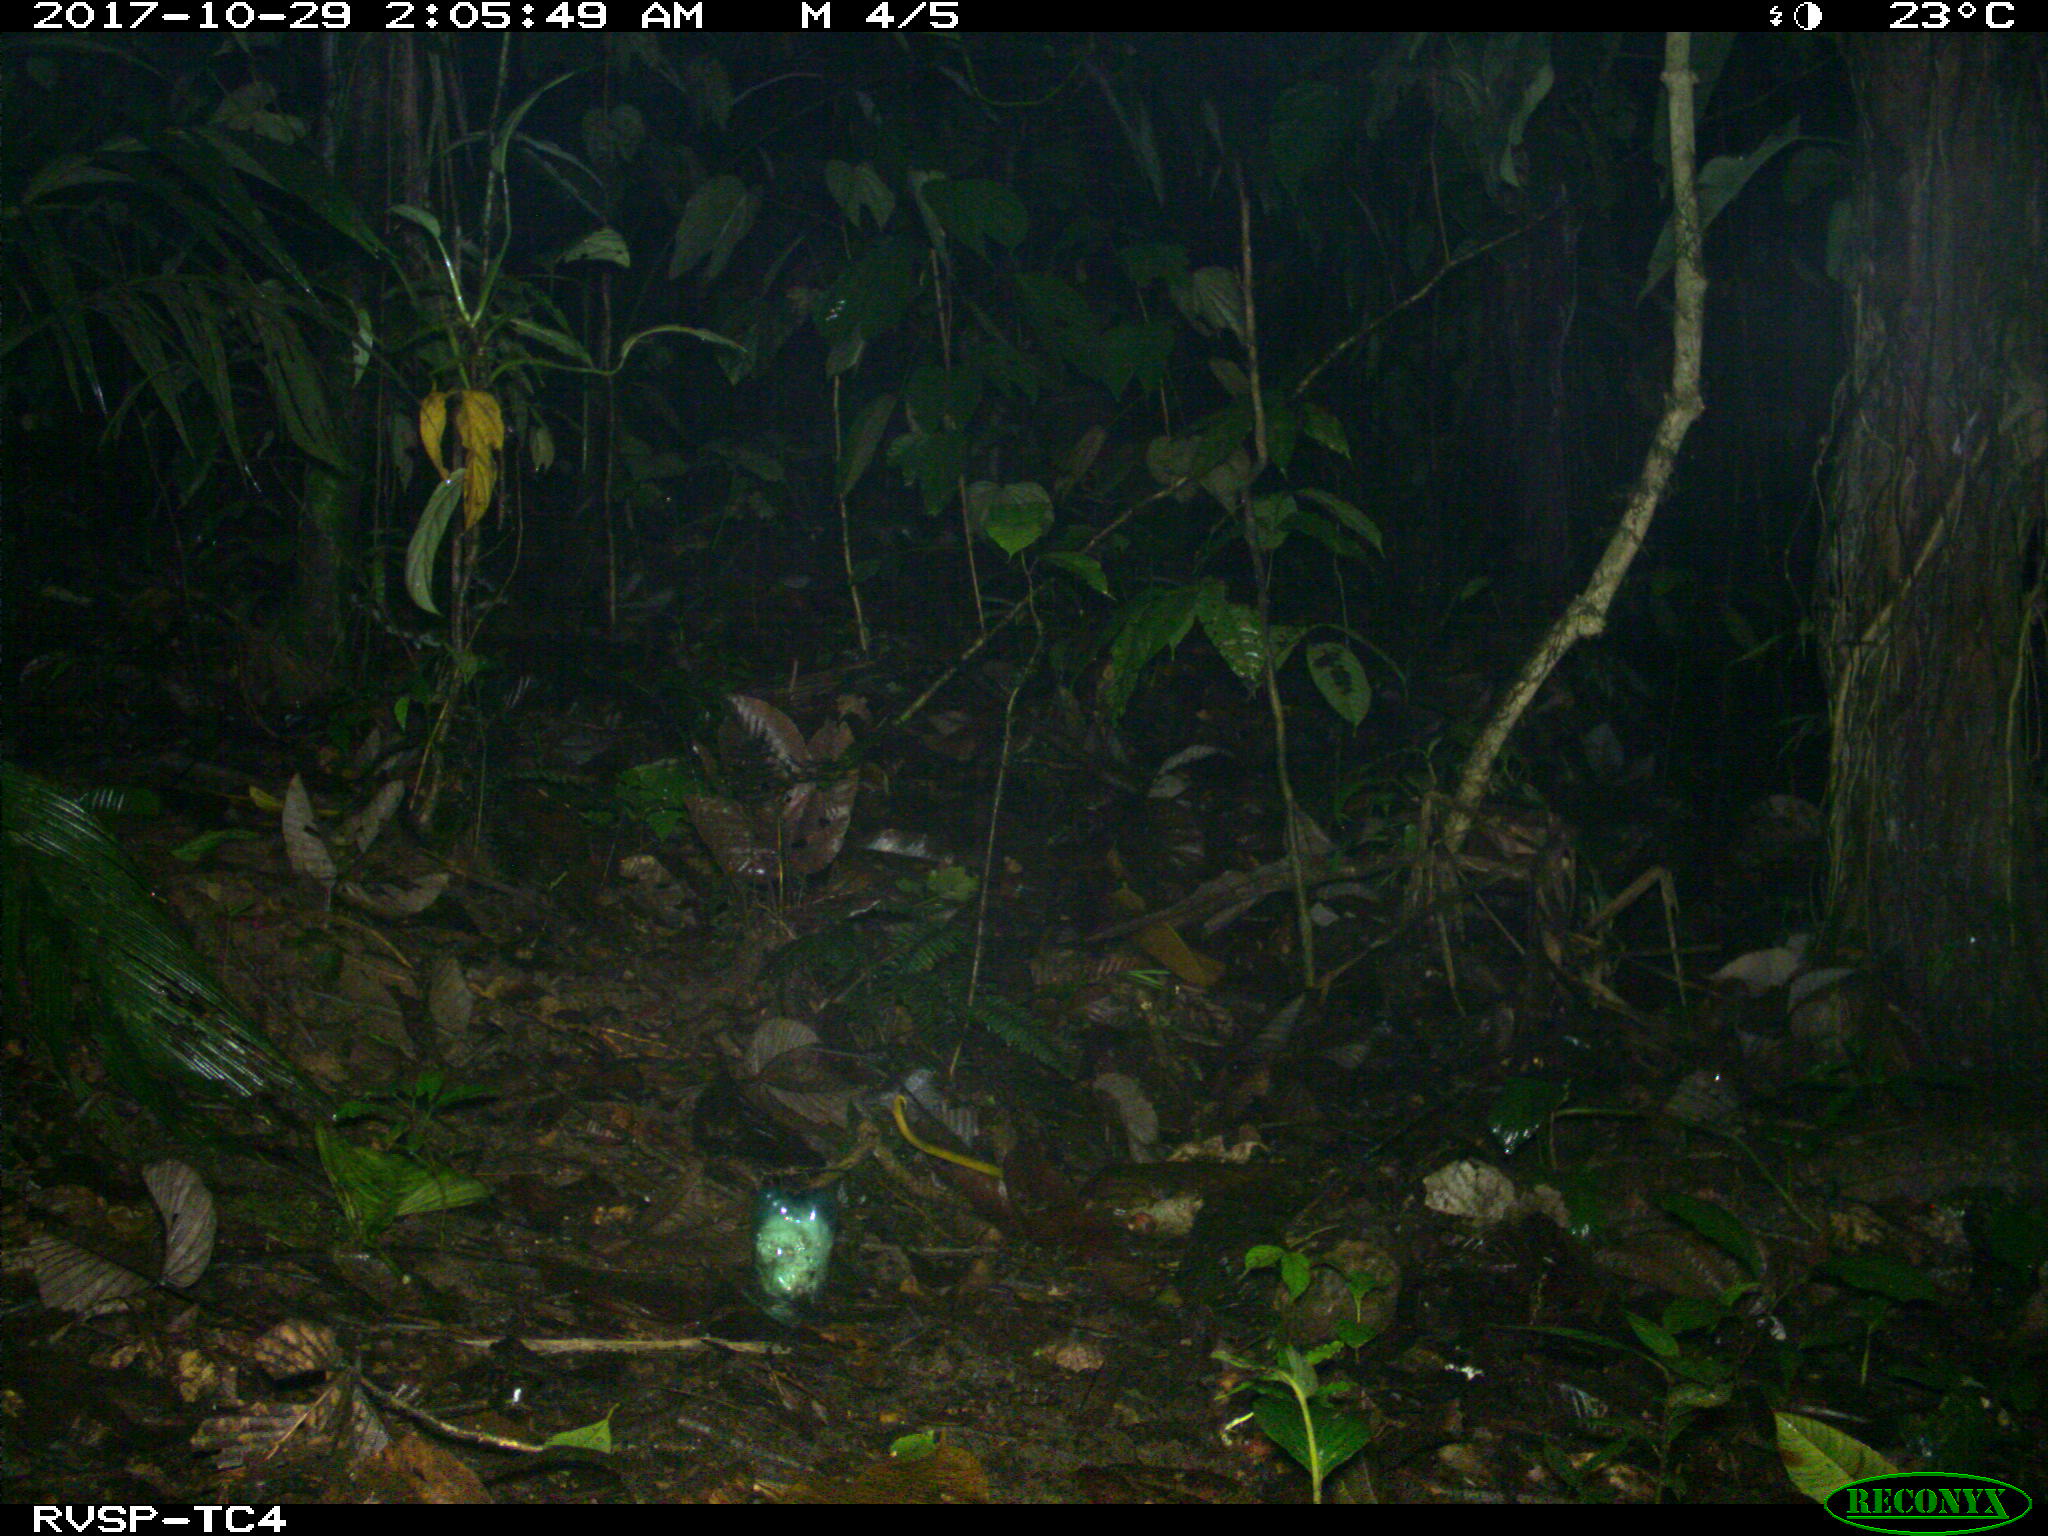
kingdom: Animalia
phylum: Chordata
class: Mammalia
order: Rodentia
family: Cuniculidae
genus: Cuniculus
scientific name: Cuniculus paca
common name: Lowland paca
